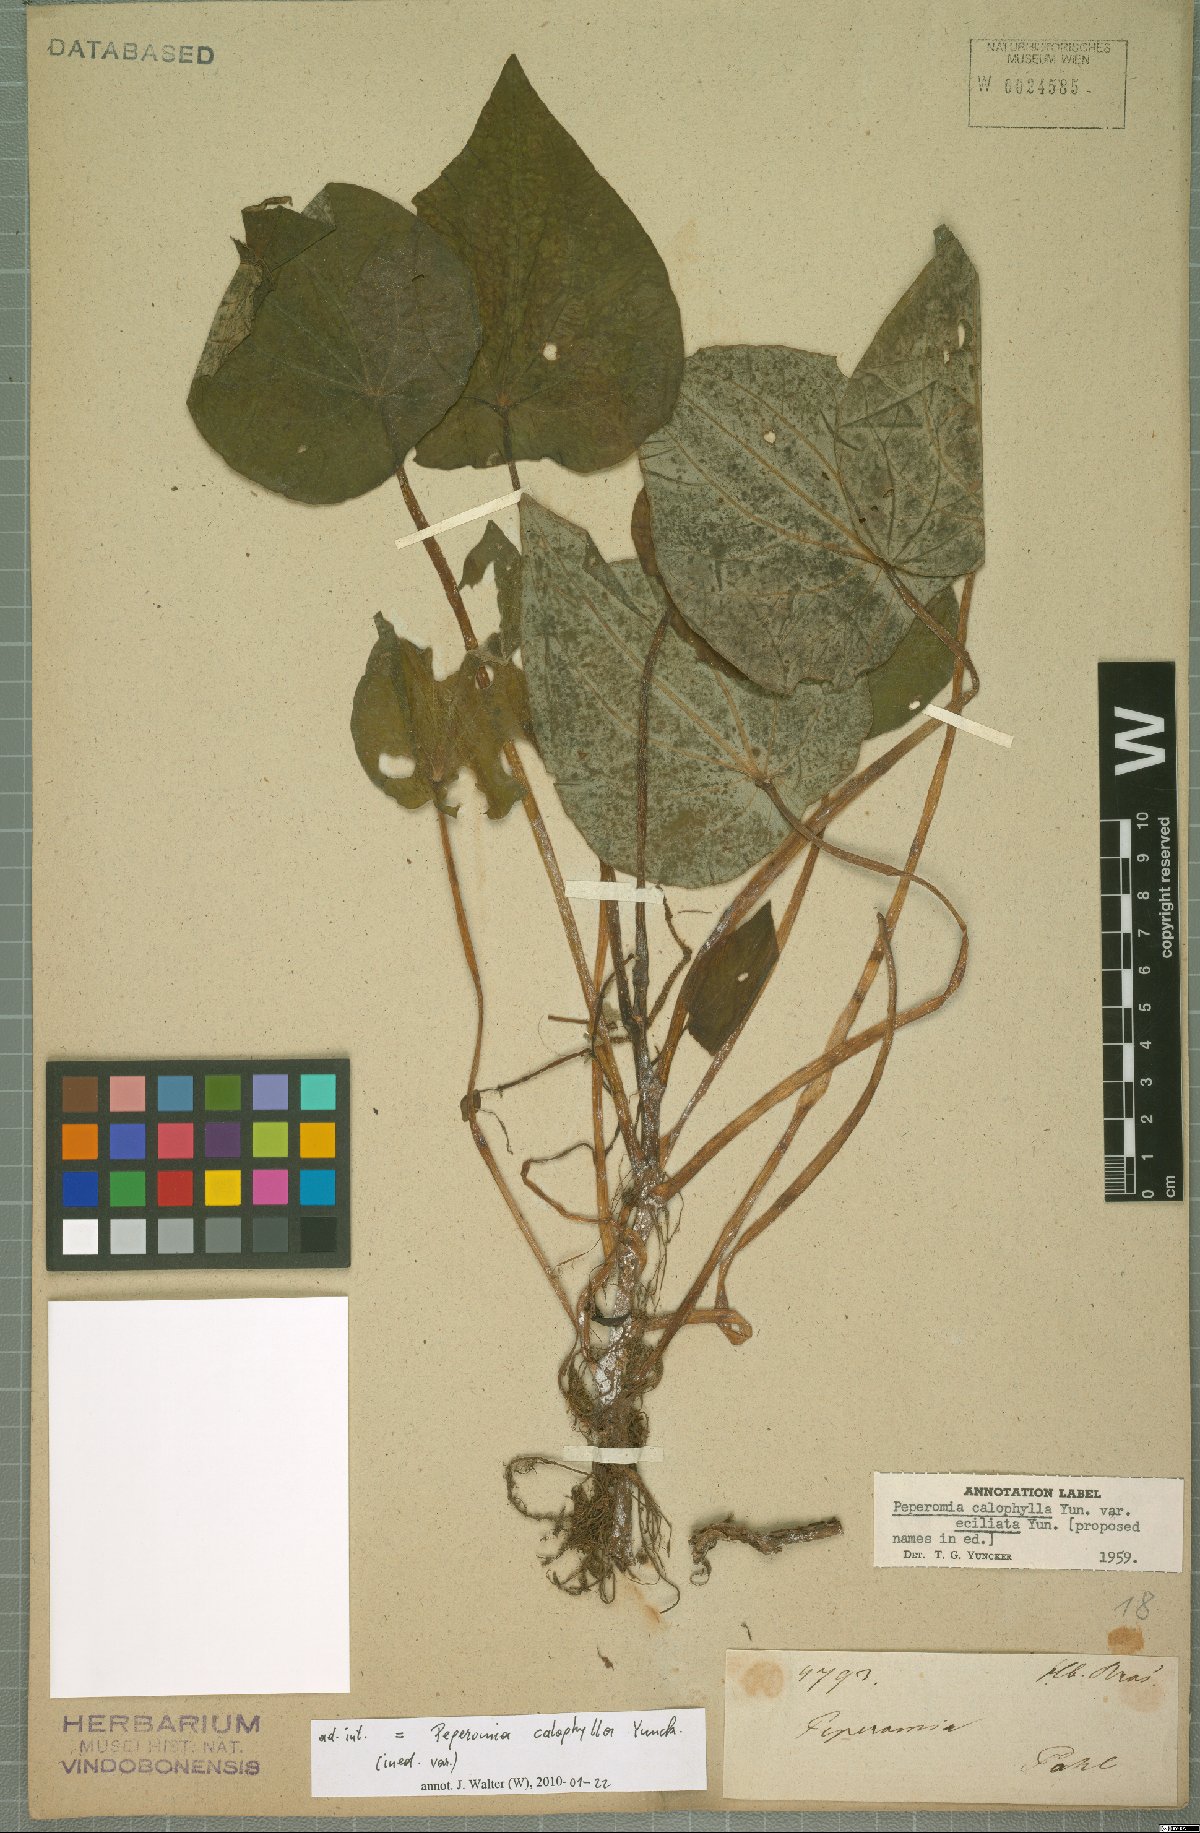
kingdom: Plantae
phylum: Tracheophyta
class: Magnoliopsida
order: Piperales
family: Piperaceae
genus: Peperomia
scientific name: Peperomia calophylla
